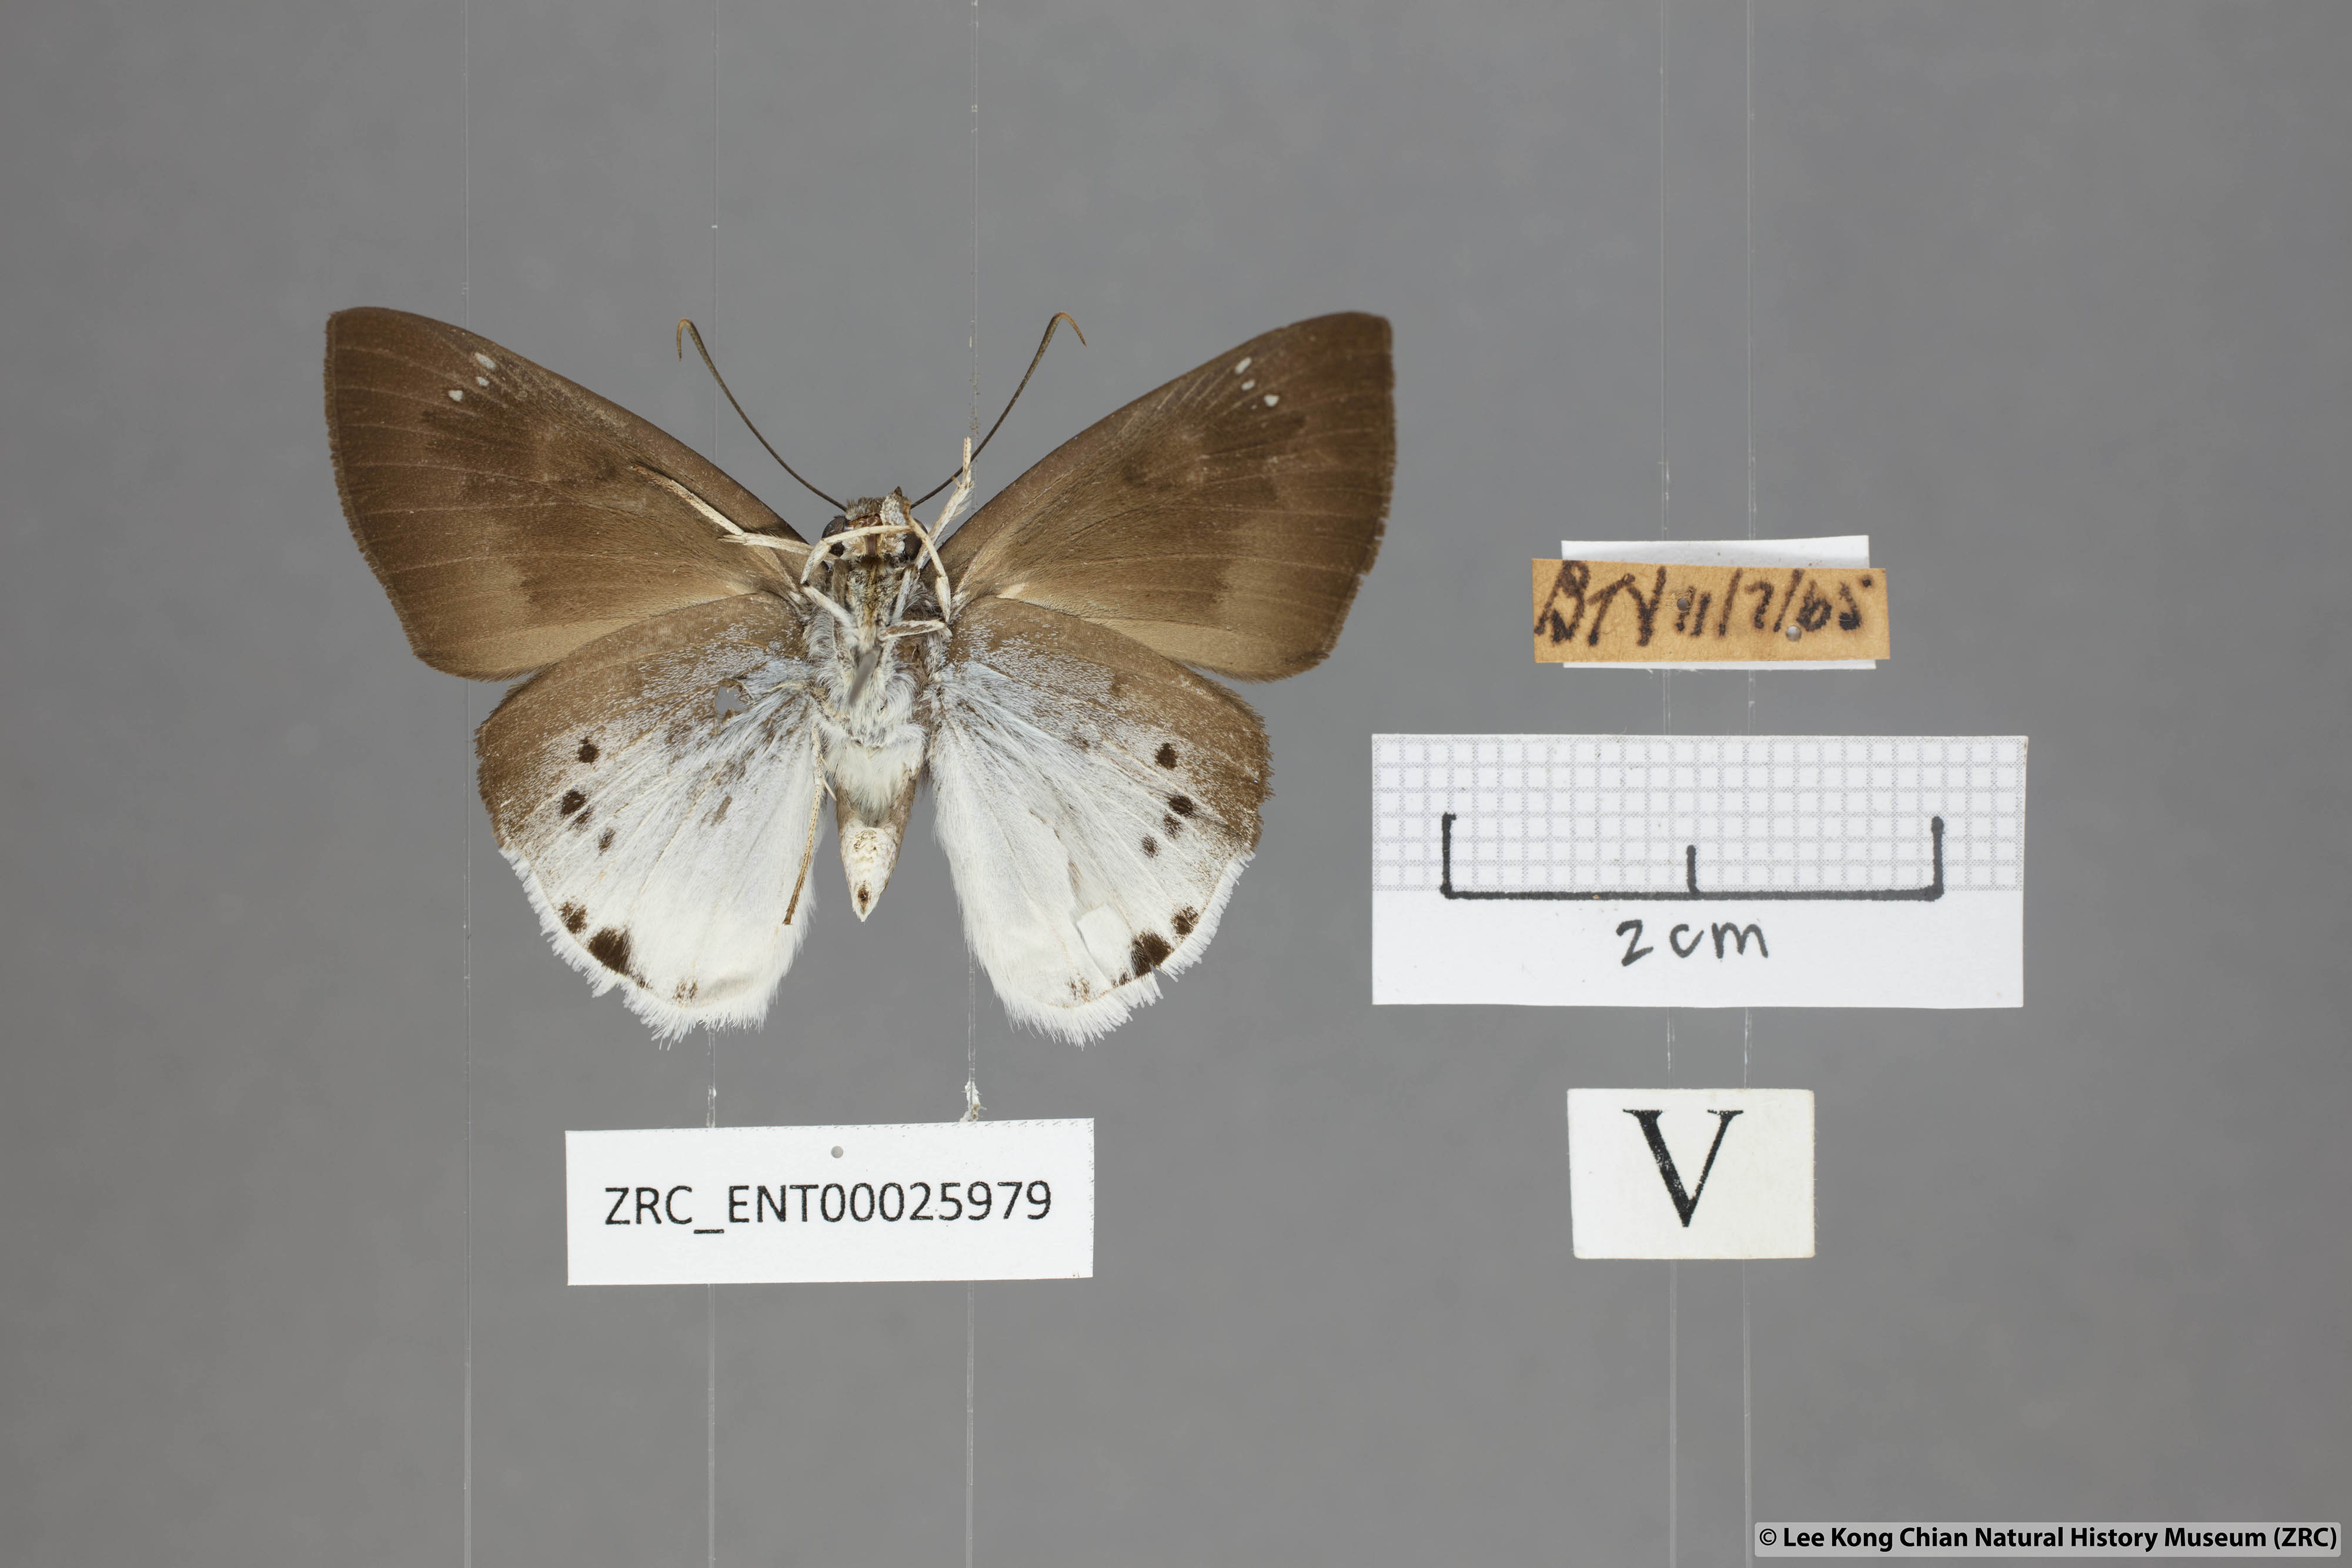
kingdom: Animalia
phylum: Arthropoda
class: Insecta
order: Lepidoptera
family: Hesperiidae
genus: Tagiades
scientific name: Tagiades gana
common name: Suffused snow flat
